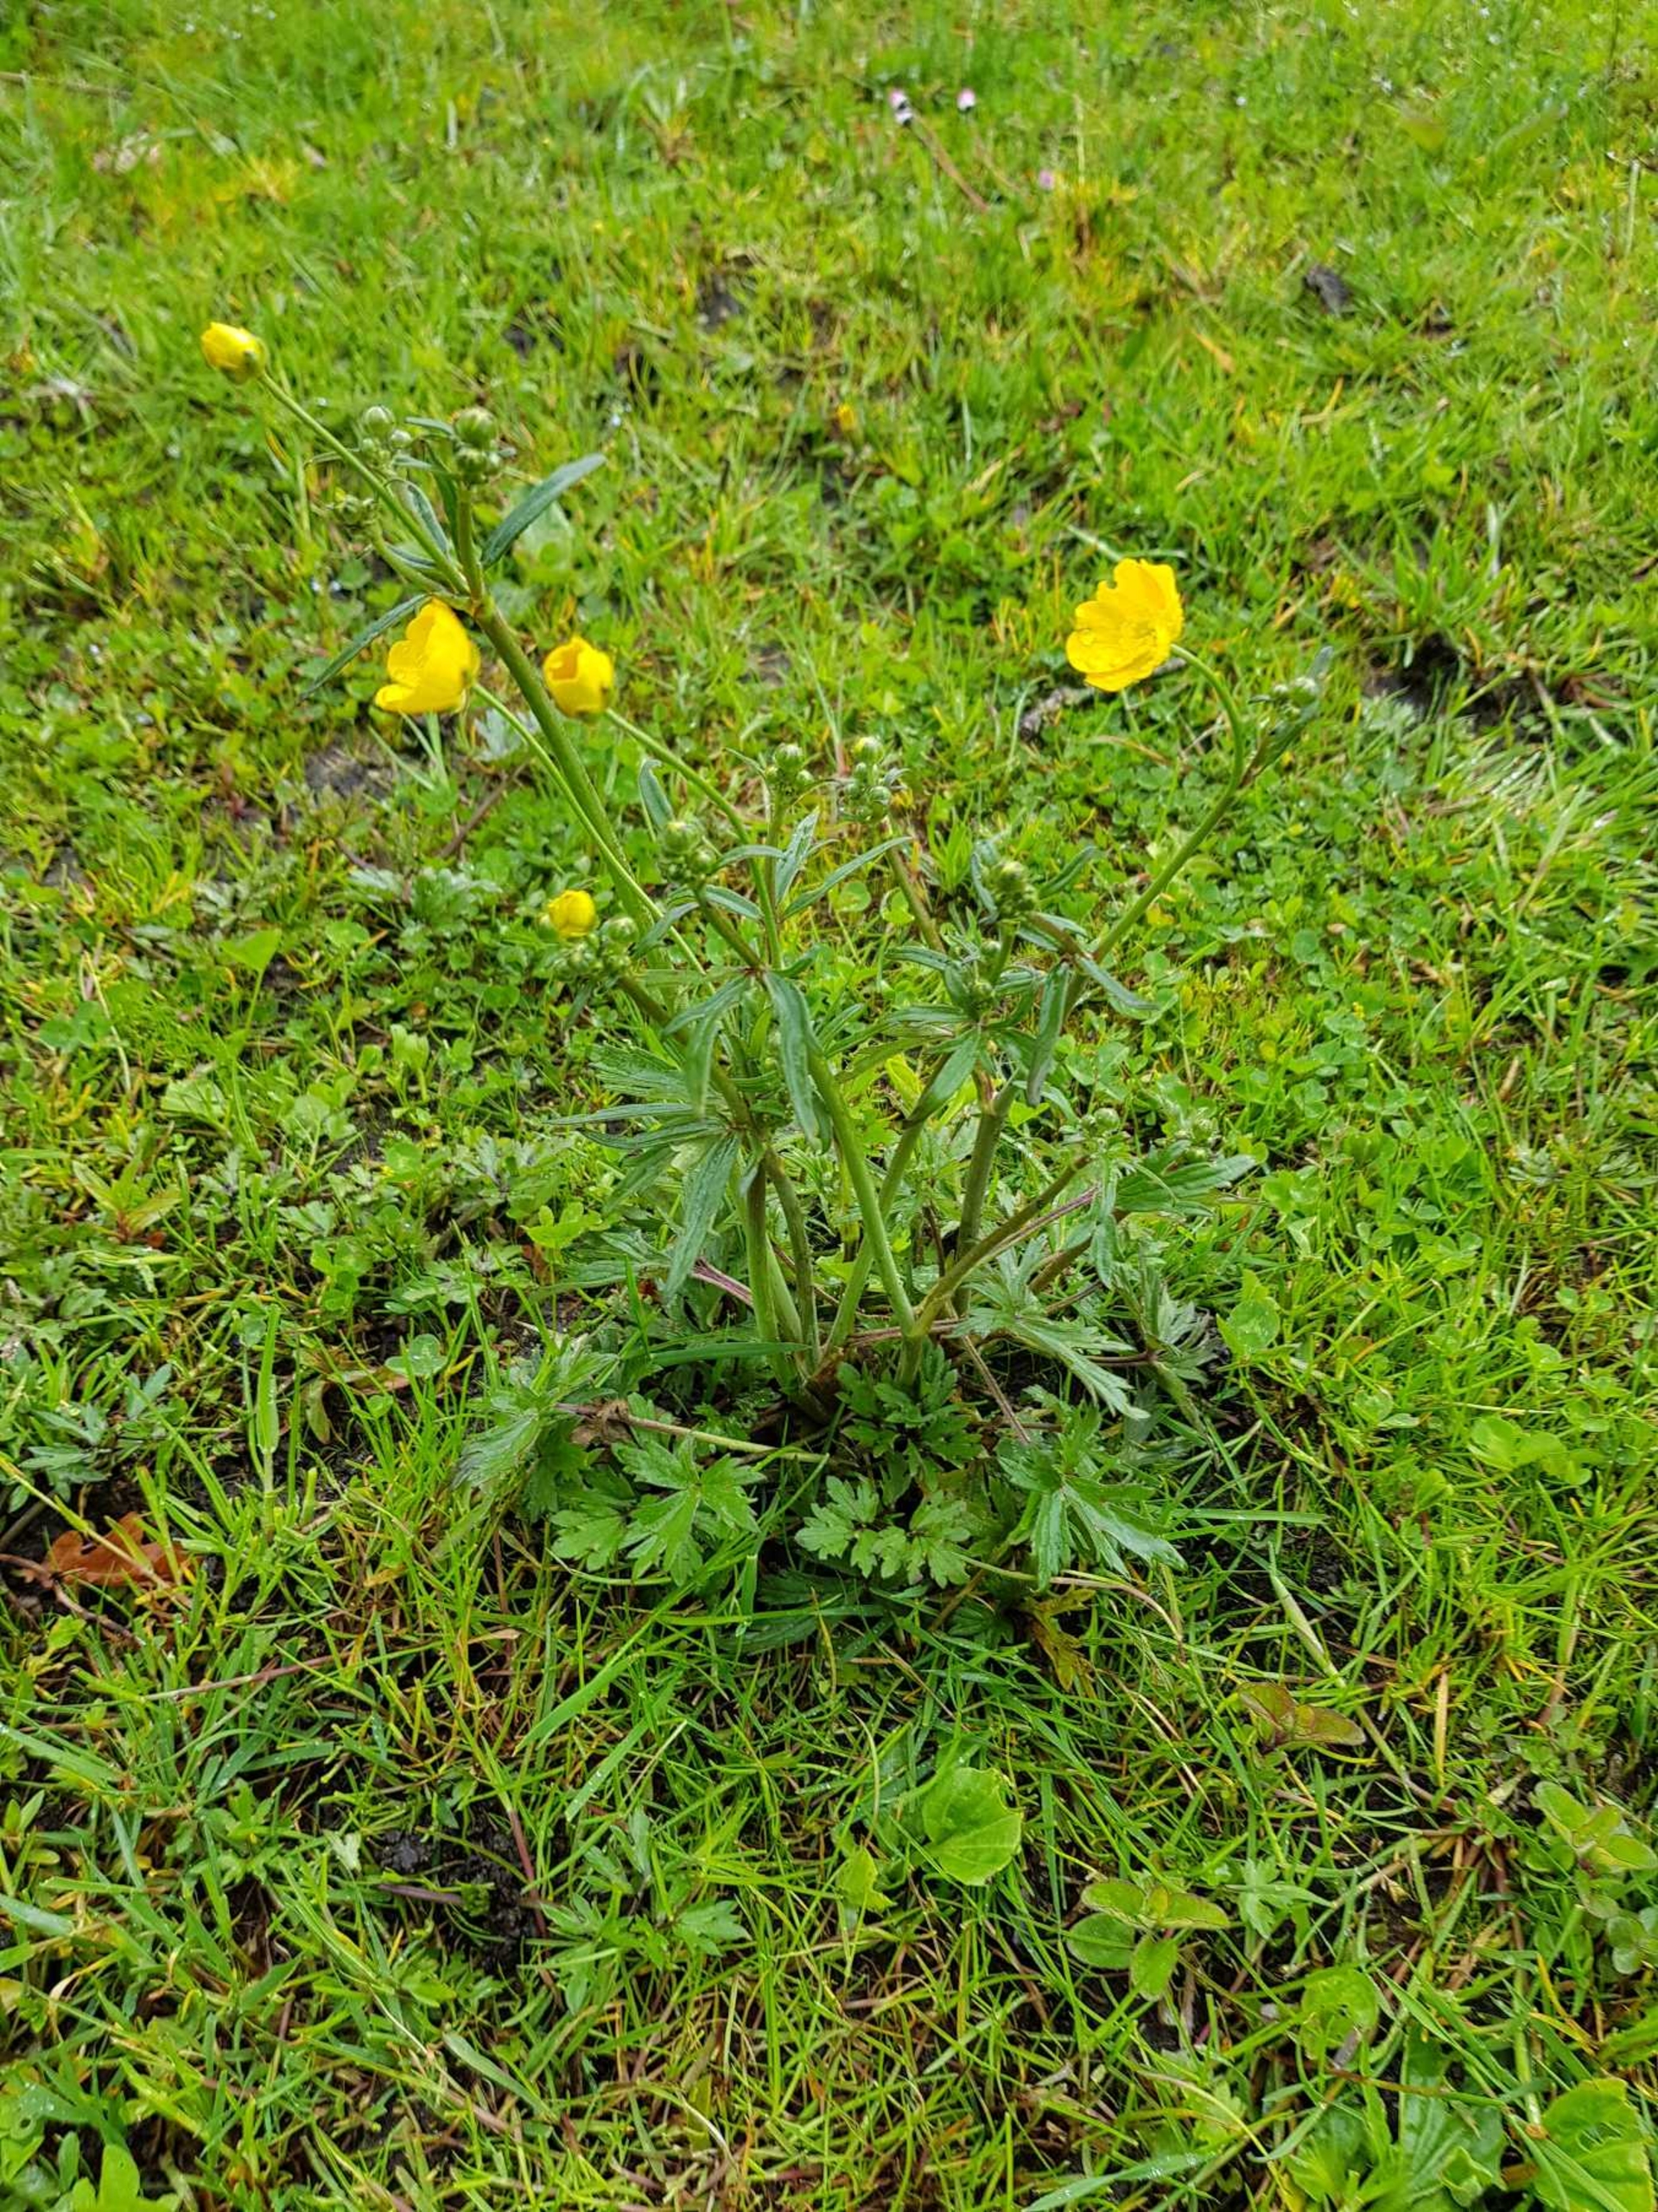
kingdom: Plantae
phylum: Tracheophyta
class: Magnoliopsida
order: Ranunculales
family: Ranunculaceae
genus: Ranunculus
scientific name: Ranunculus acris
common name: Bidende ranunkel
